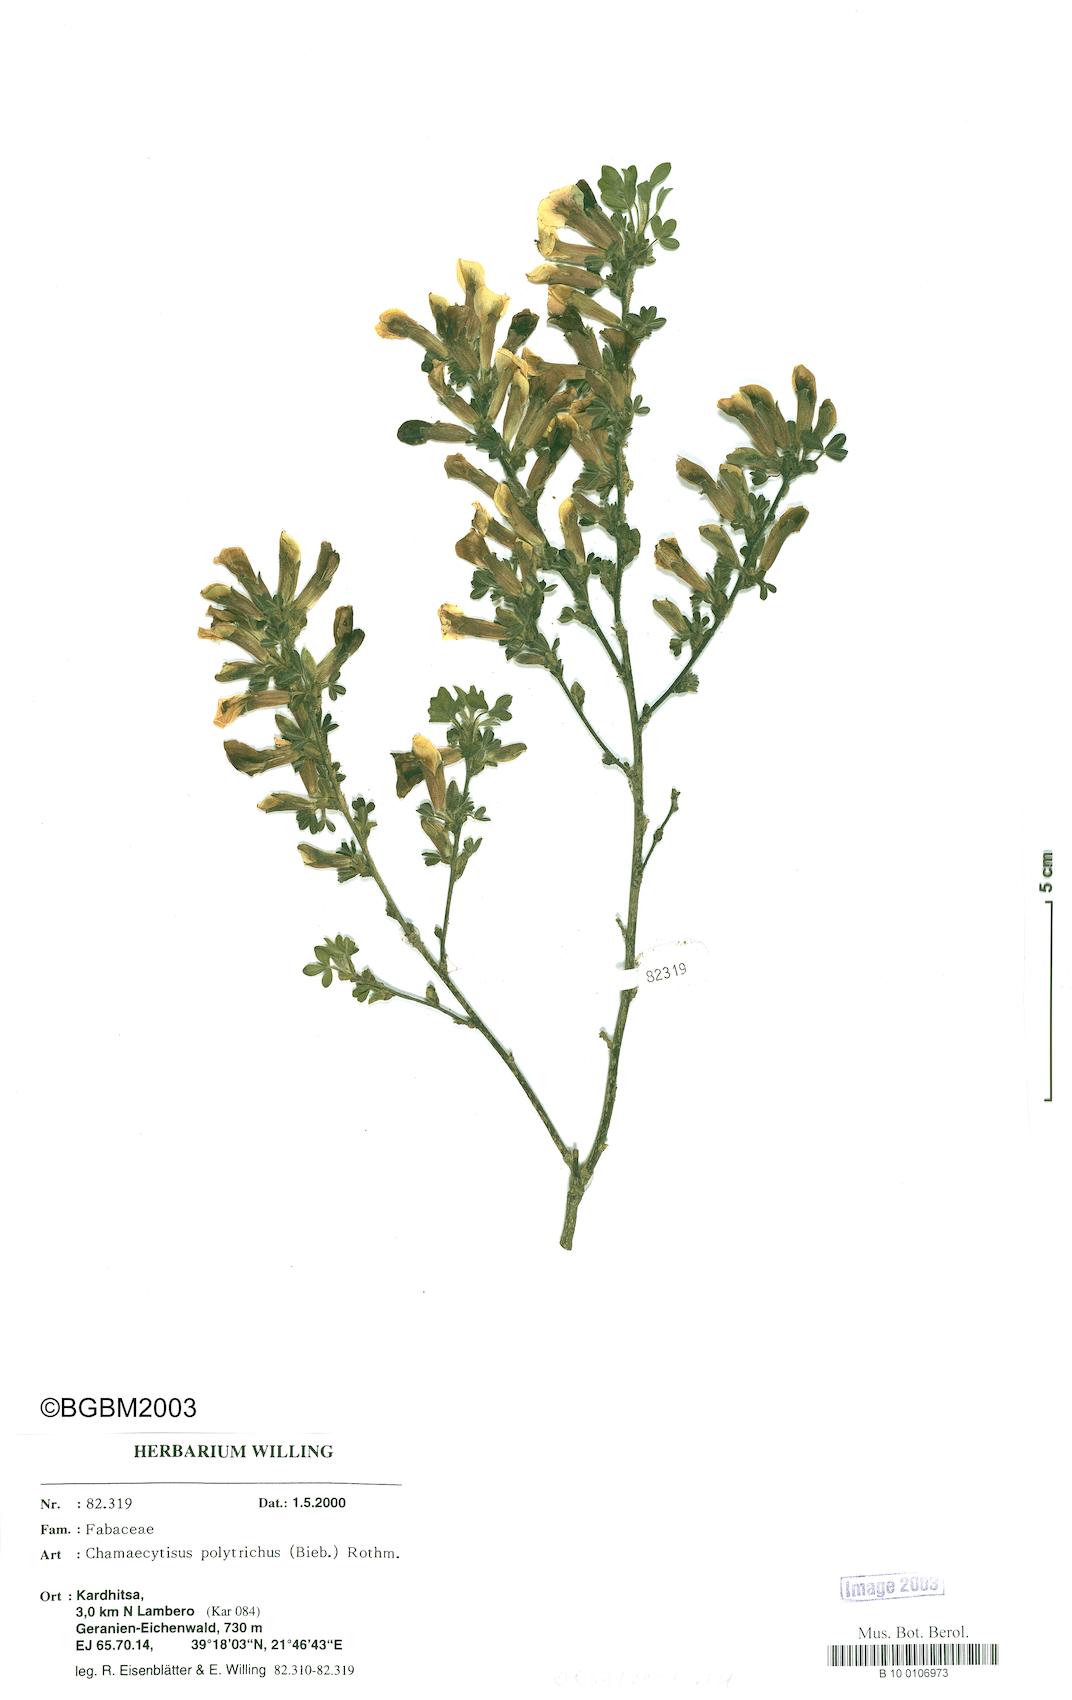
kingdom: Plantae
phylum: Tracheophyta
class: Magnoliopsida
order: Fabales
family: Fabaceae
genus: Chamaecytisus
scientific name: Chamaecytisus hirsutus
